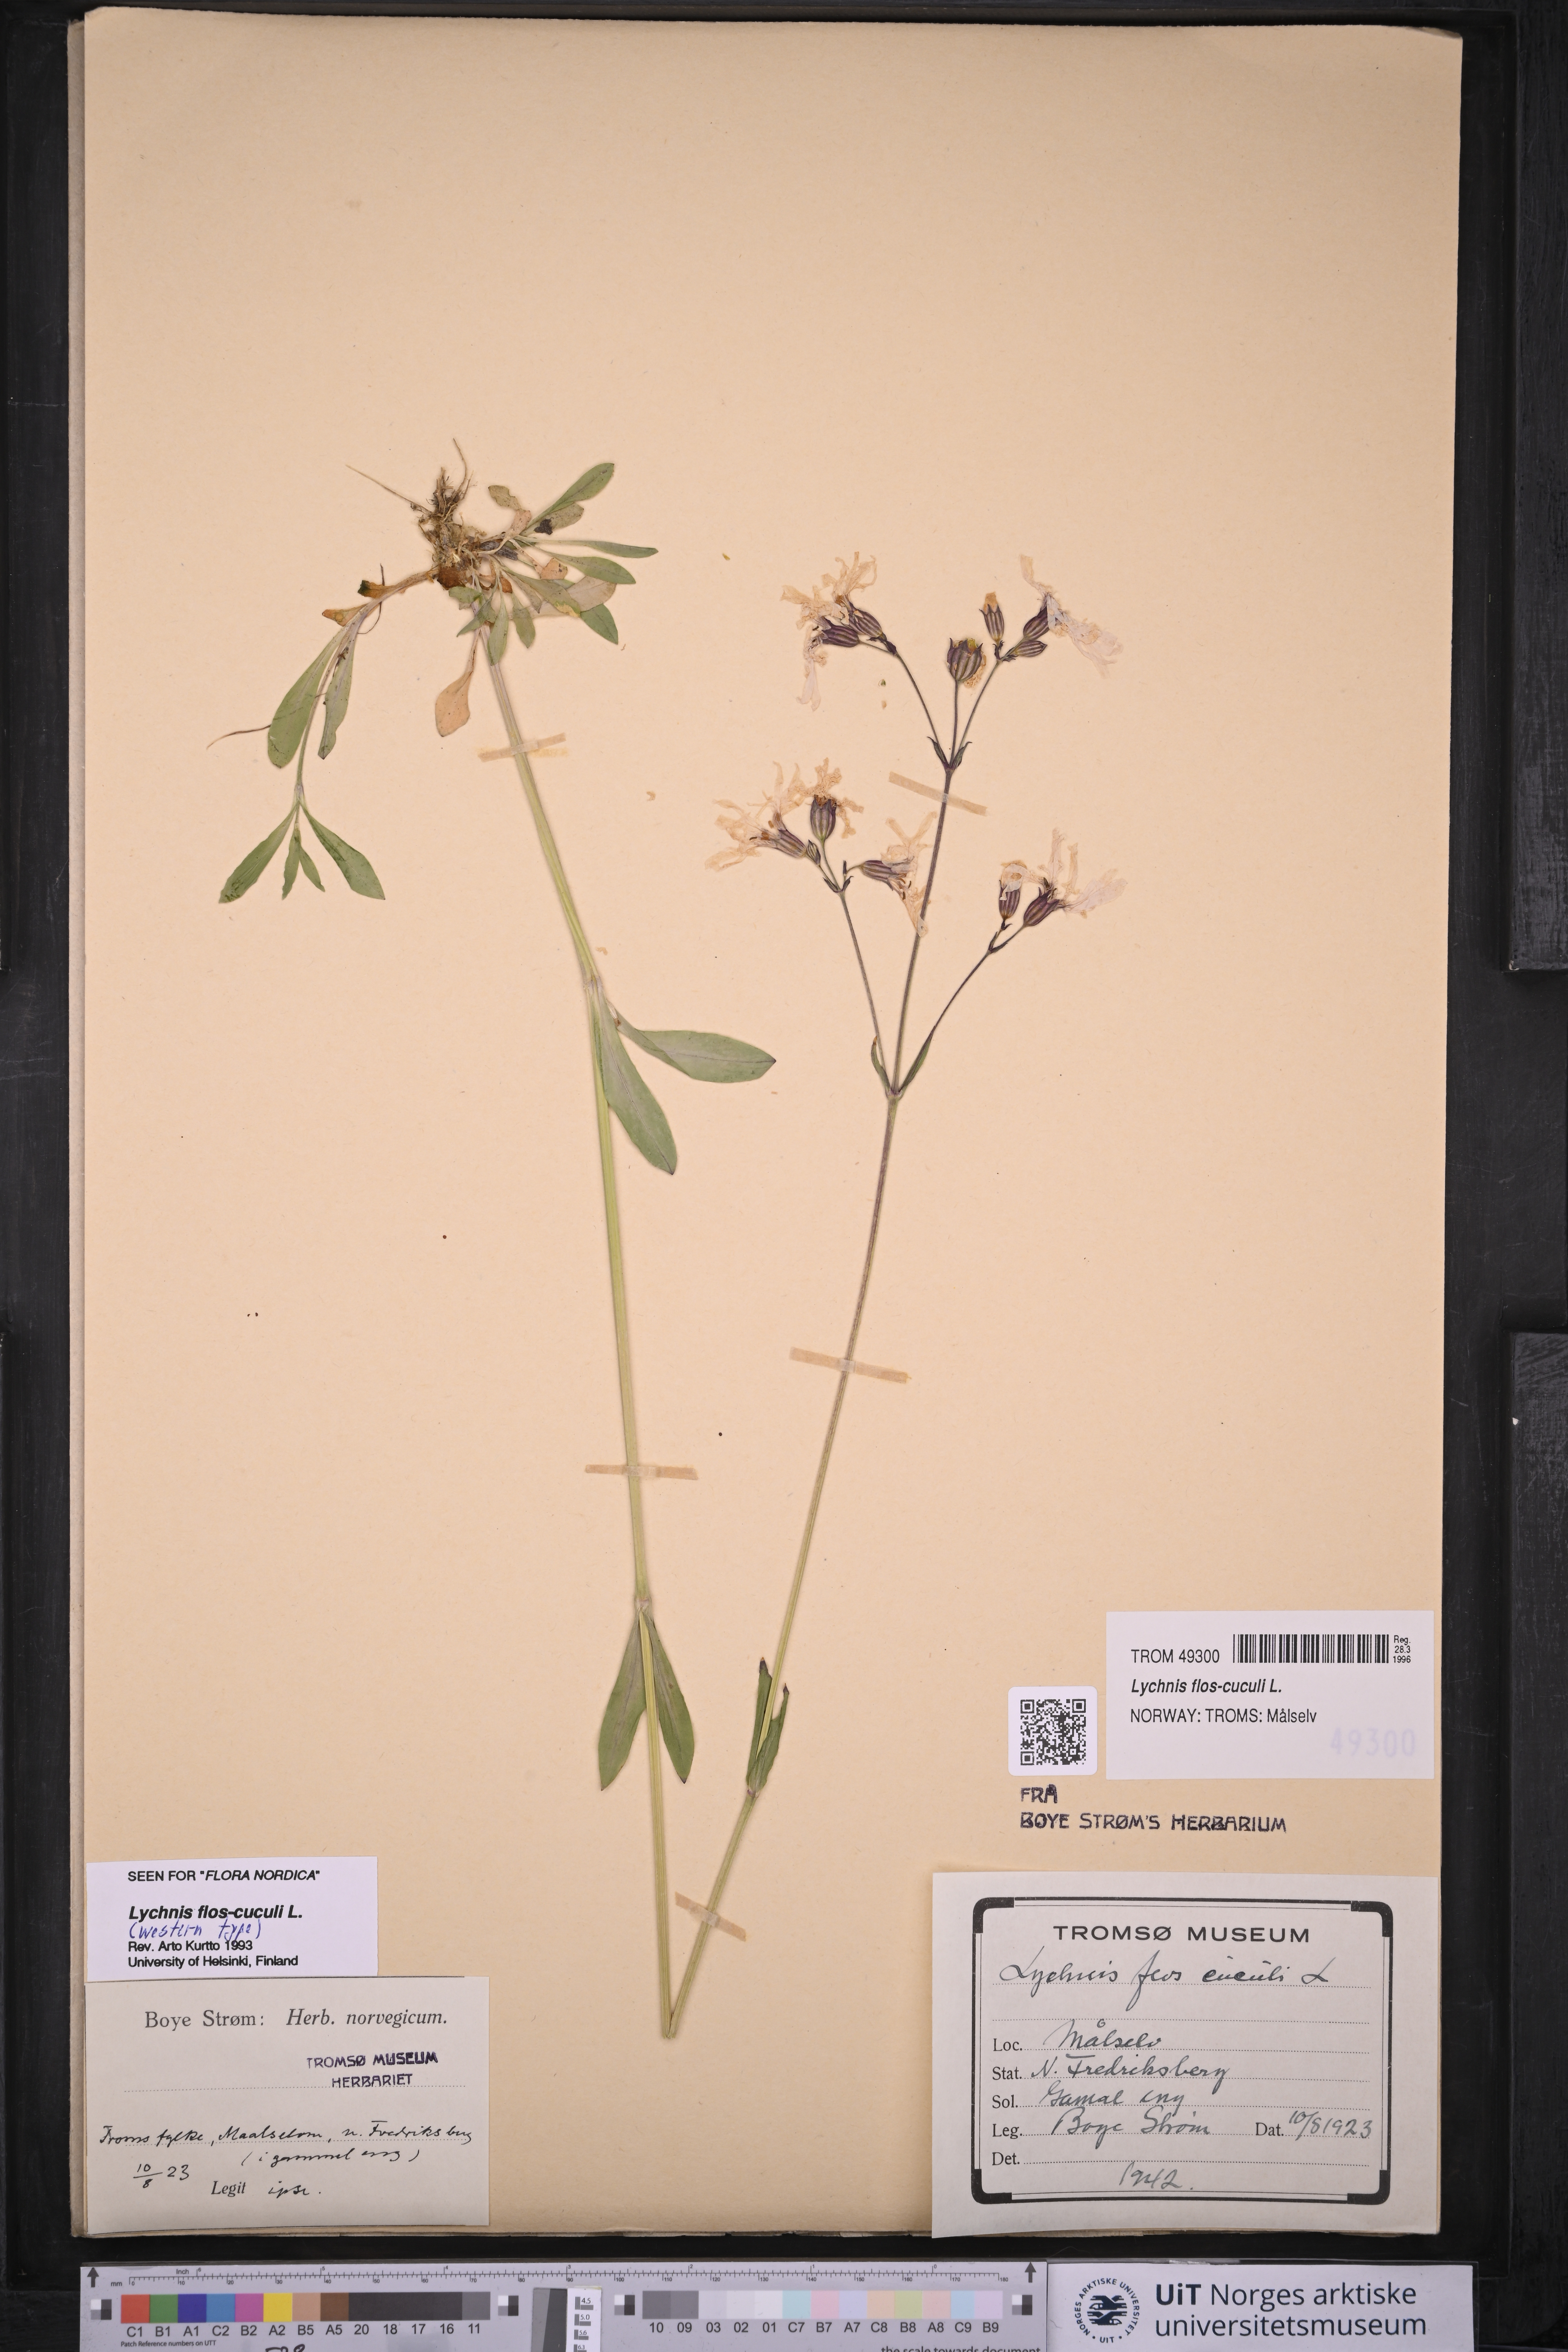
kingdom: Plantae
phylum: Tracheophyta
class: Magnoliopsida
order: Caryophyllales
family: Caryophyllaceae
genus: Silene
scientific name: Silene flos-cuculi
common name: Ragged-robin
